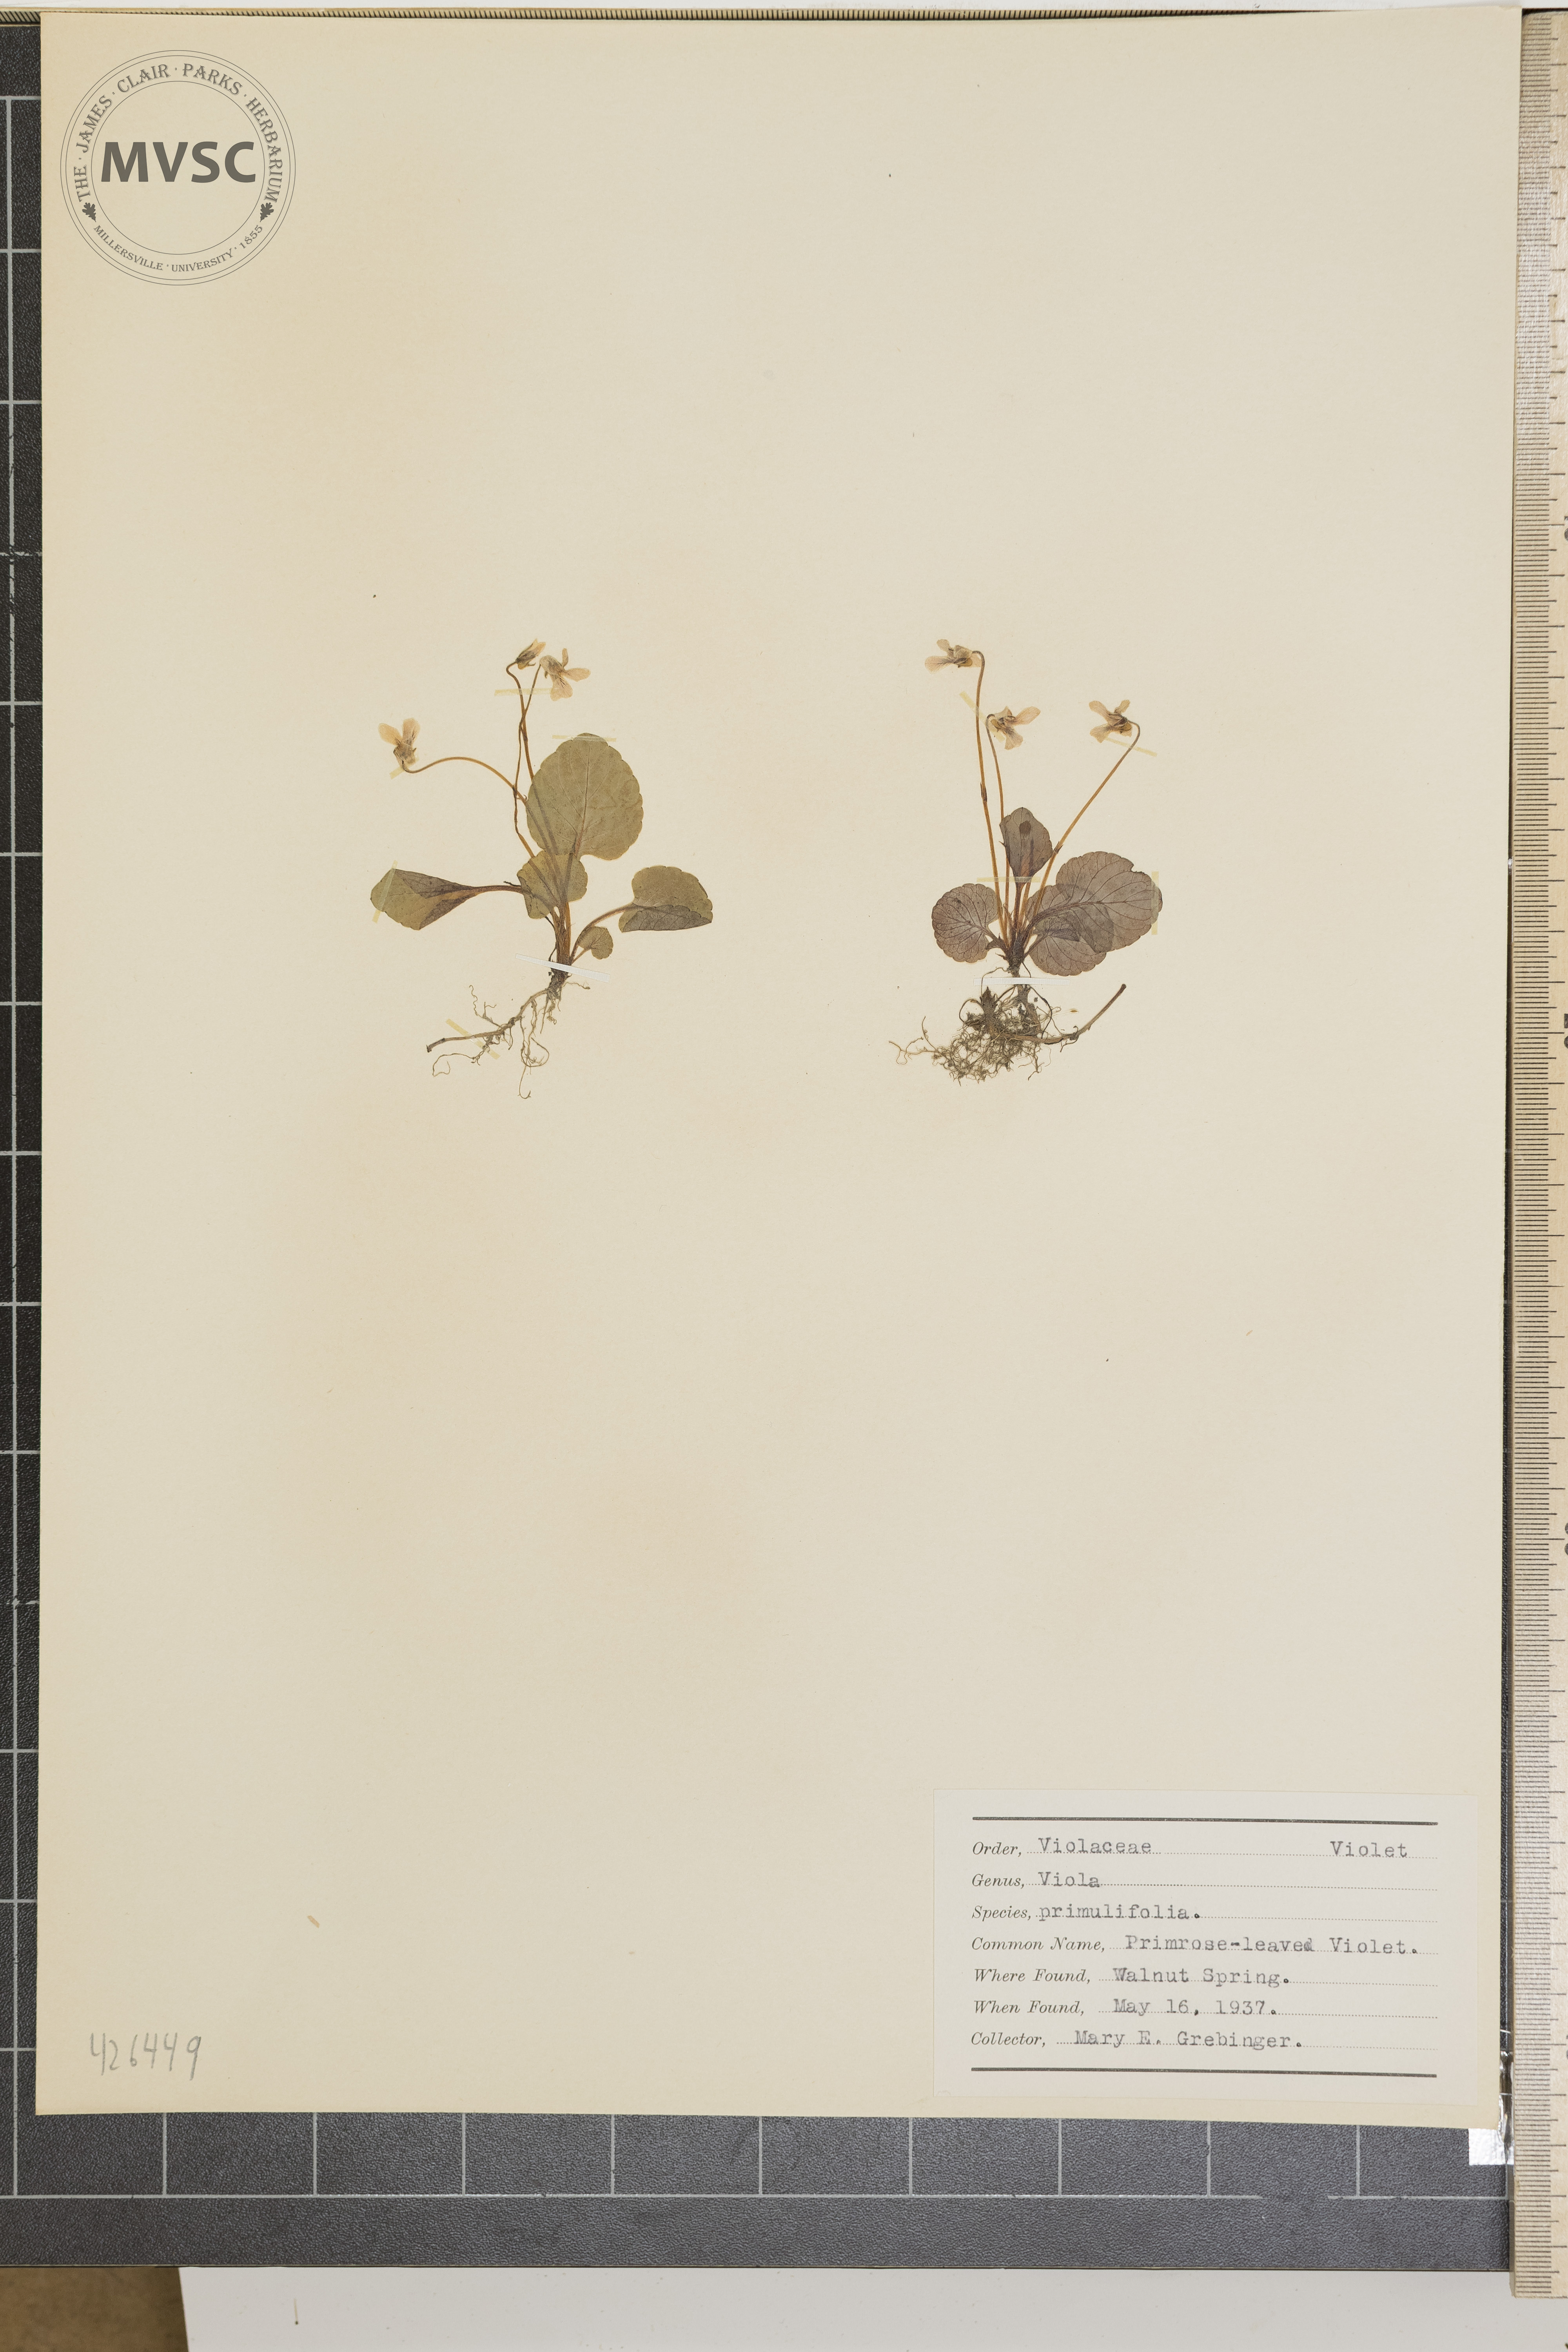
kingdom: Plantae
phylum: Tracheophyta
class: Magnoliopsida
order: Malpighiales
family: Violaceae
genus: Viola
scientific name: Viola primulifolia
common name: Primrose-leaved violet
